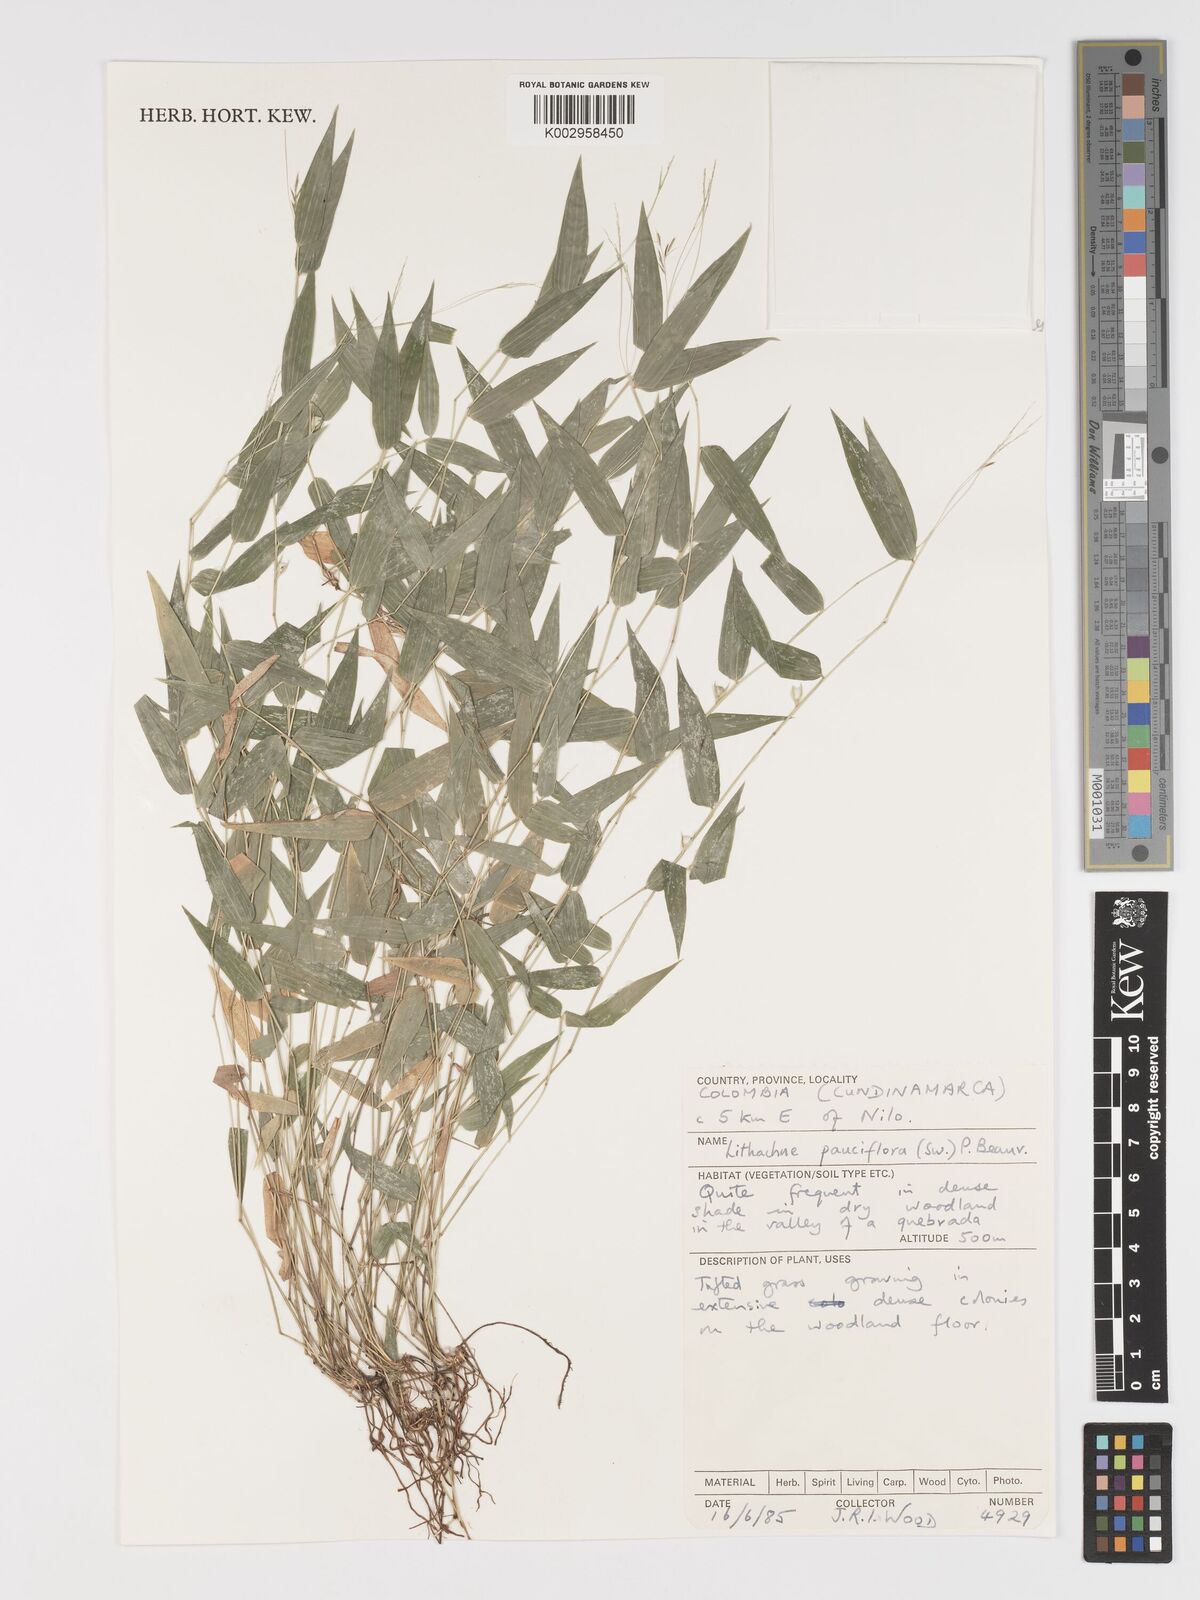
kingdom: Plantae
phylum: Tracheophyta
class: Liliopsida
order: Poales
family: Poaceae
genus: Lithachne
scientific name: Lithachne pauciflora
